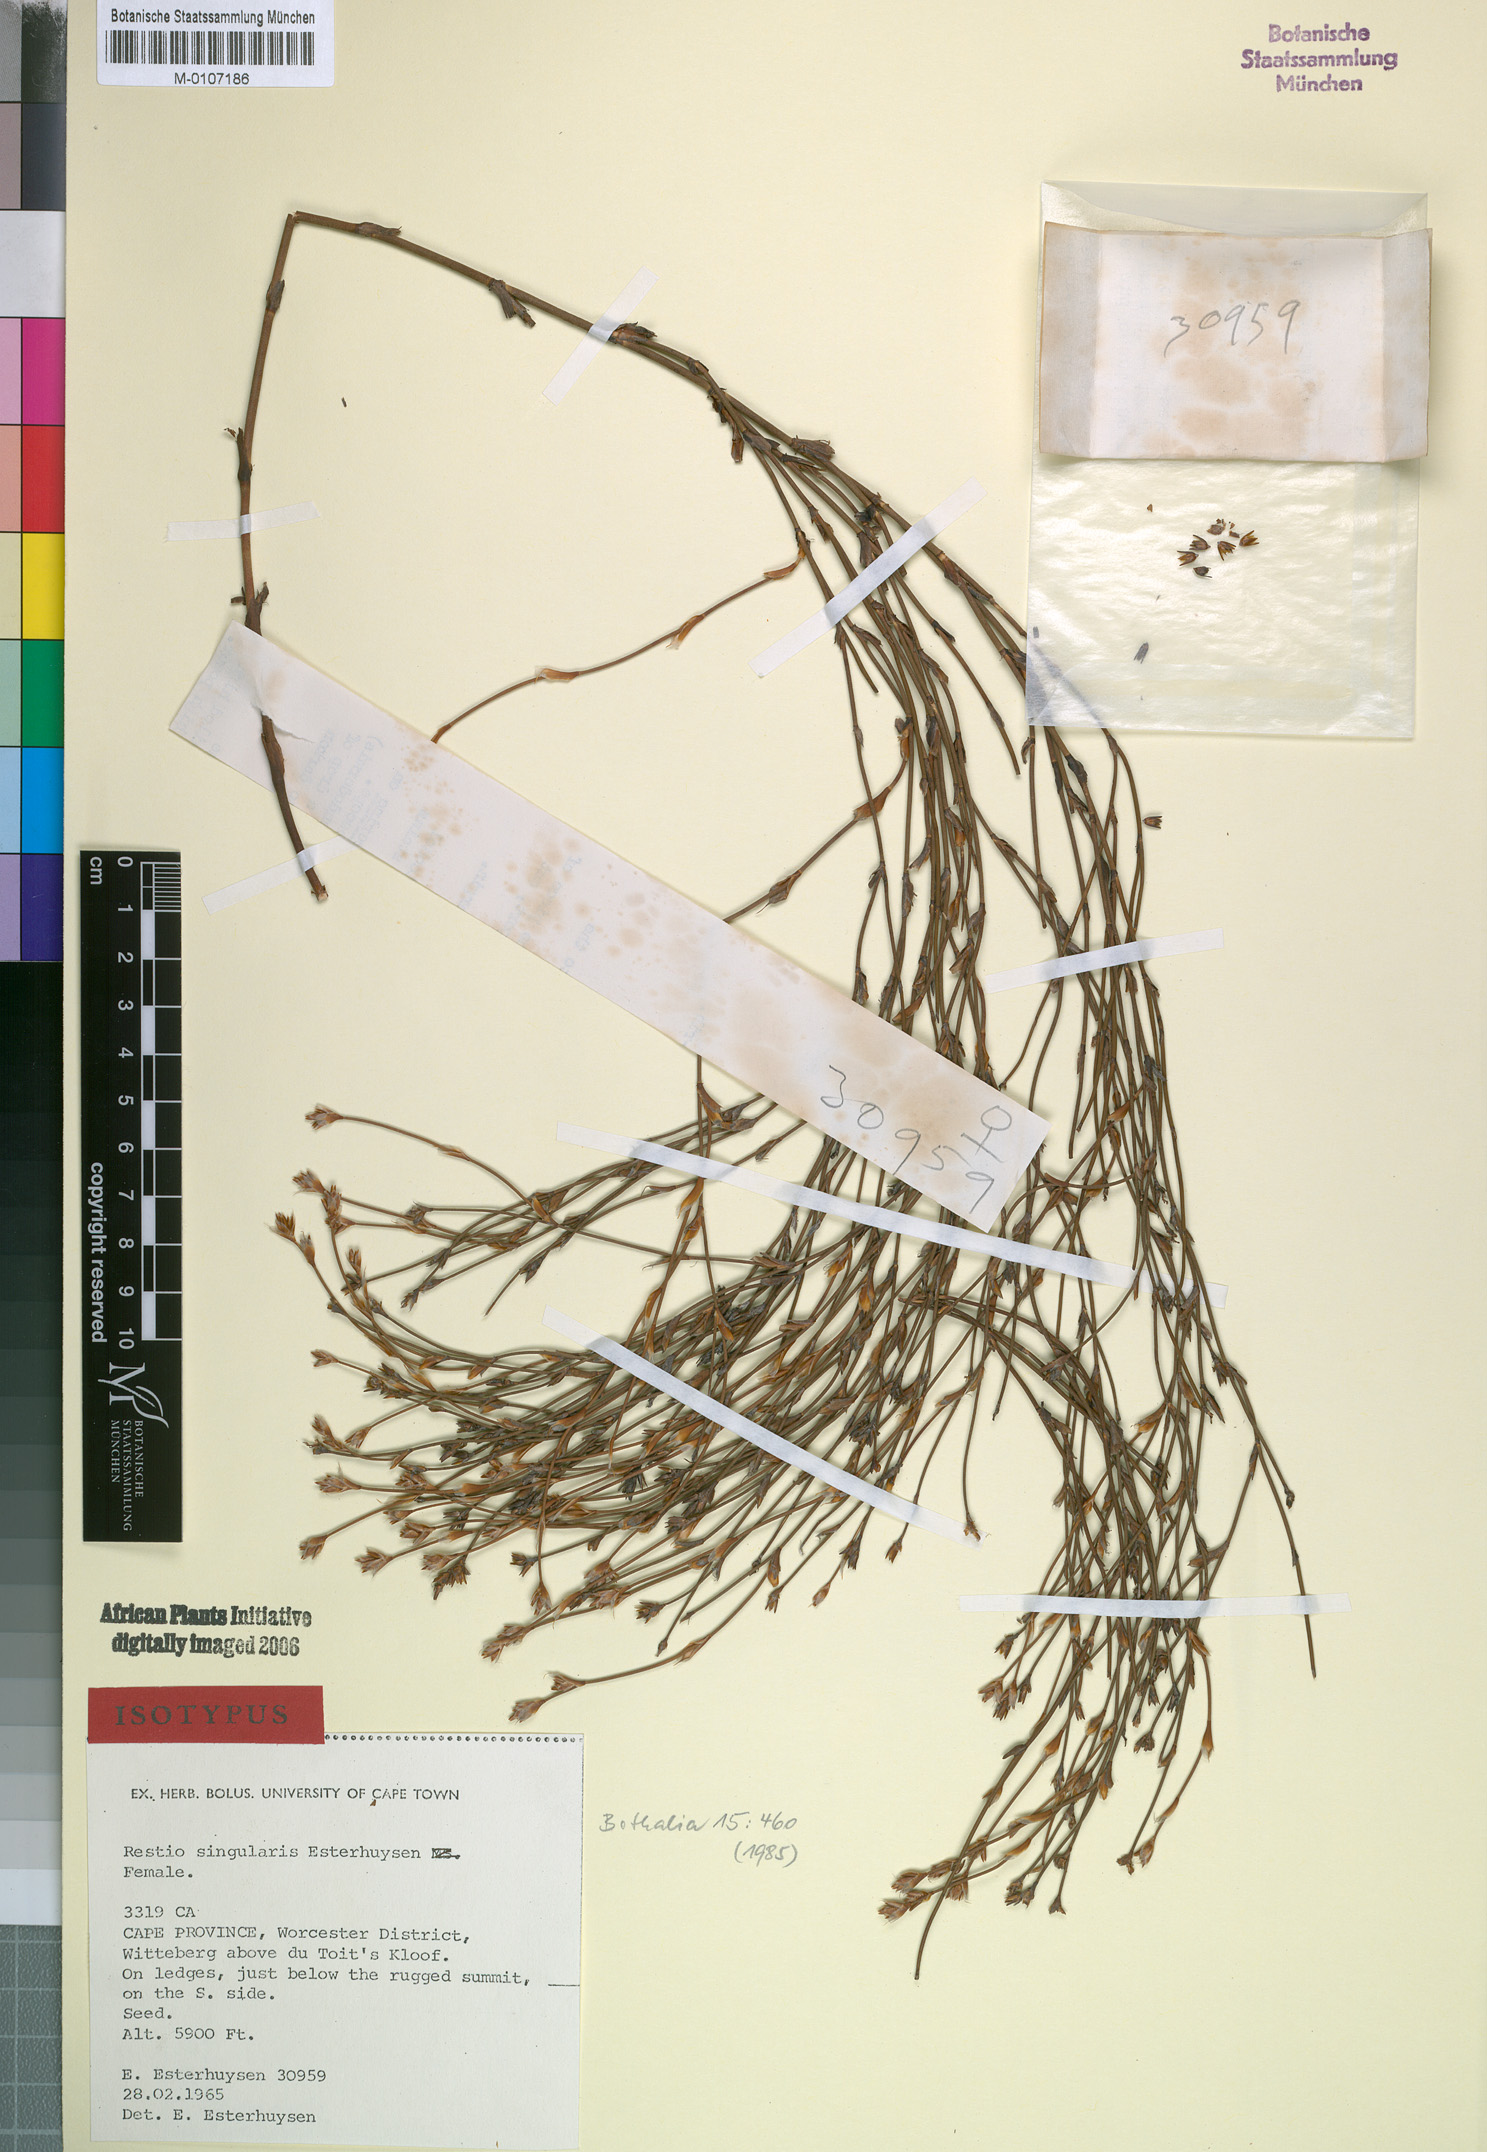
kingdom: Plantae
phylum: Tracheophyta
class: Liliopsida
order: Poales
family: Restionaceae
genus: Restio
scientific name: Restio singularis
